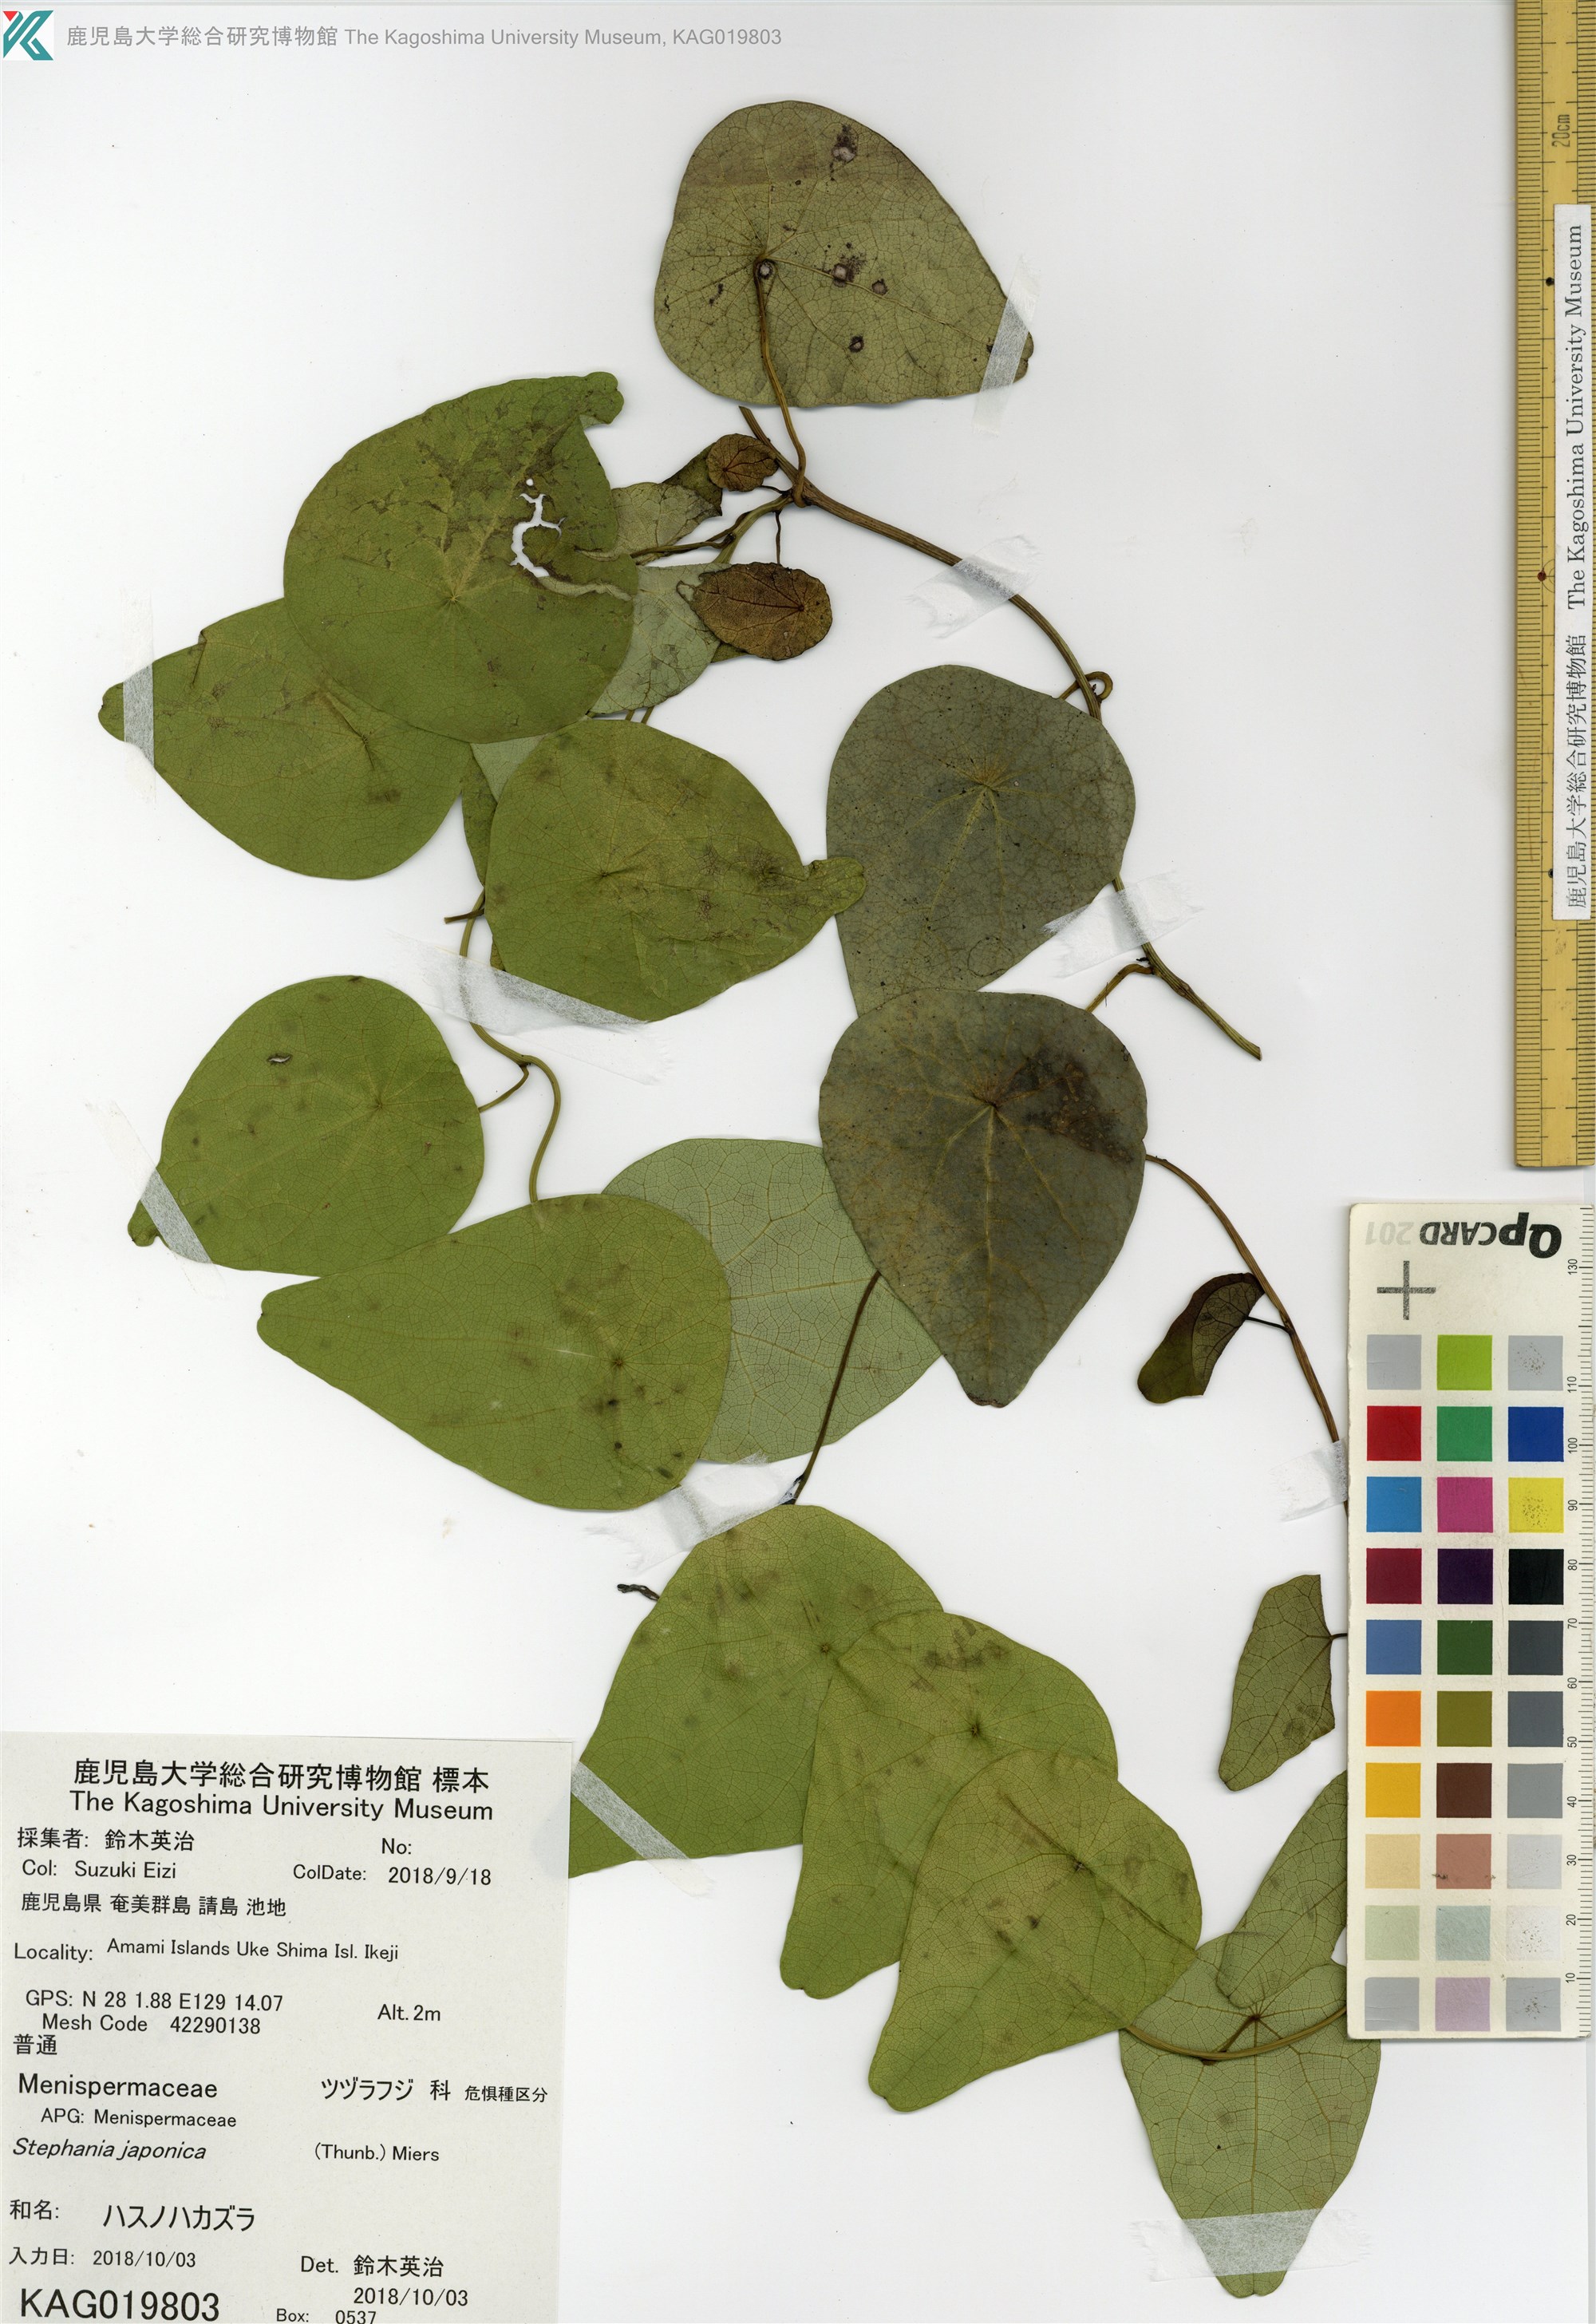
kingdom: Plantae
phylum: Tracheophyta
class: Magnoliopsida
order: Ranunculales
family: Menispermaceae
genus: Stephania
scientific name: Stephania japonica
